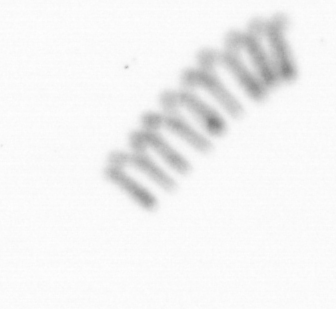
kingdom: Chromista
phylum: Ochrophyta
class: Bacillariophyceae
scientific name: Bacillariophyceae
